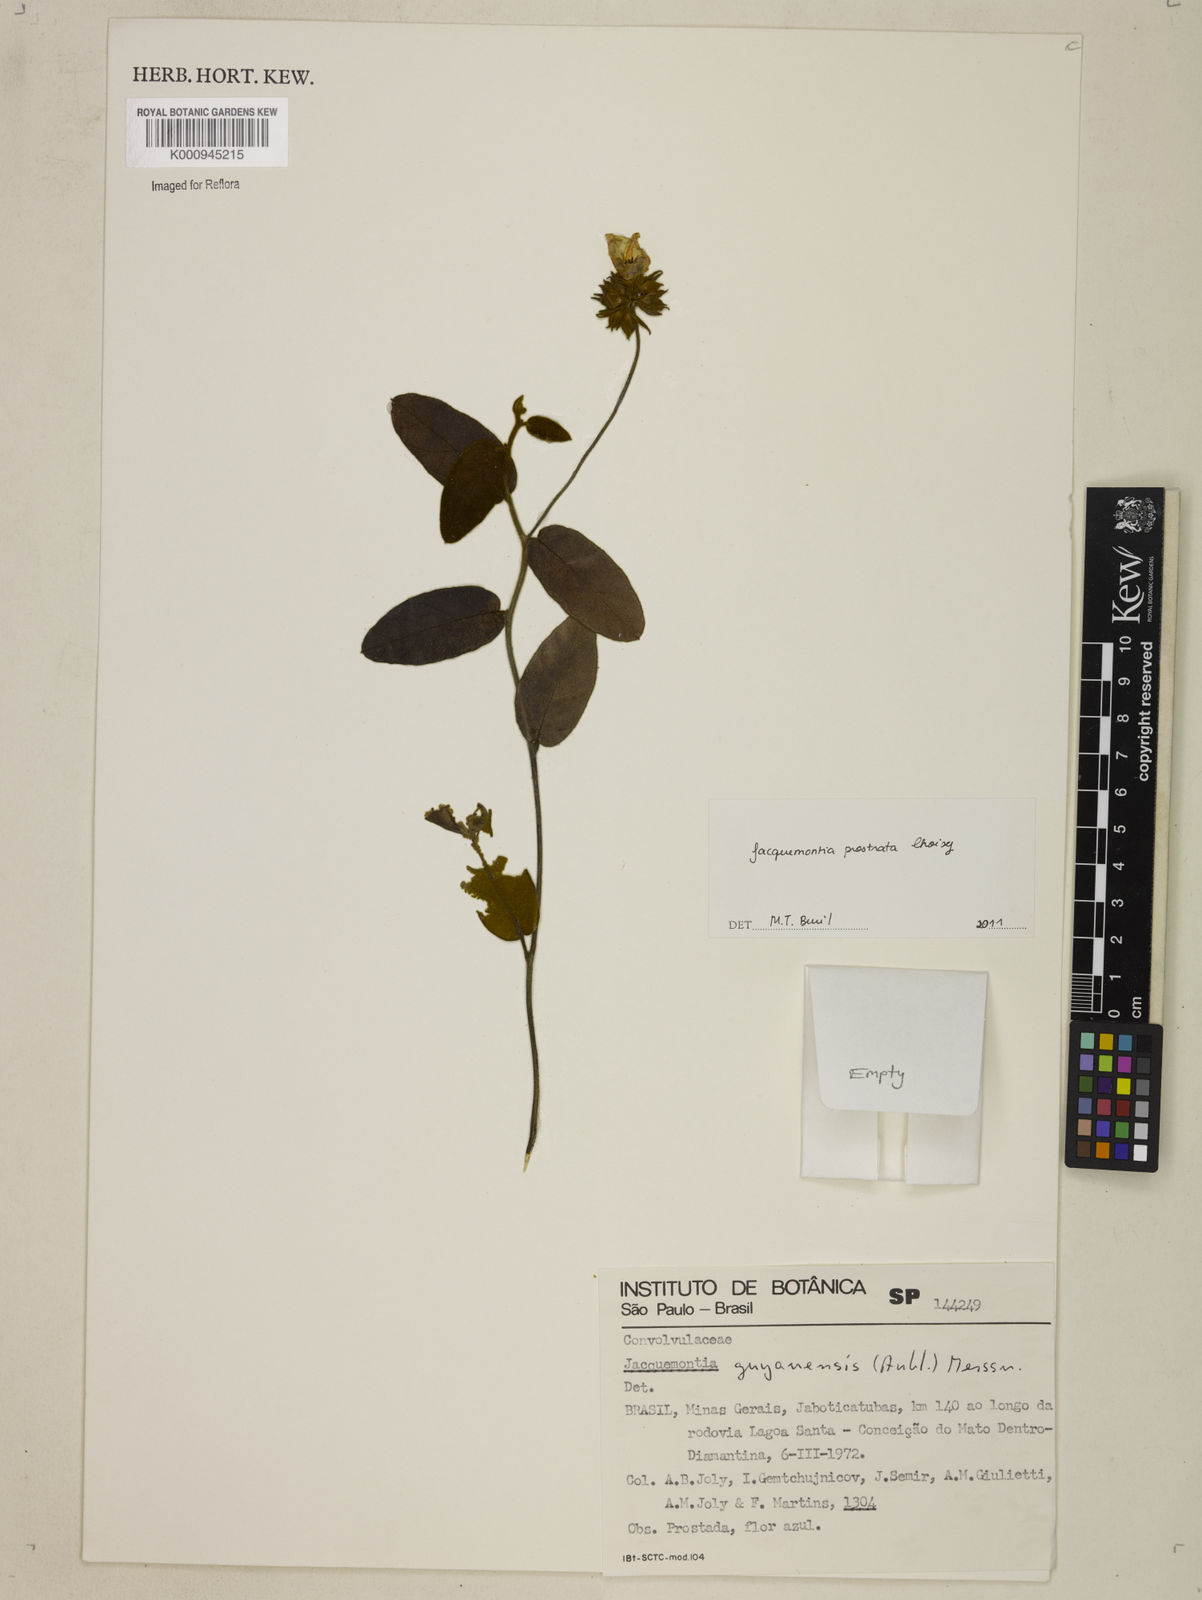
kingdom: Plantae
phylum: Tracheophyta
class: Magnoliopsida
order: Solanales
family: Convolvulaceae
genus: Jacquemontia
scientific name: Jacquemontia prostrata
